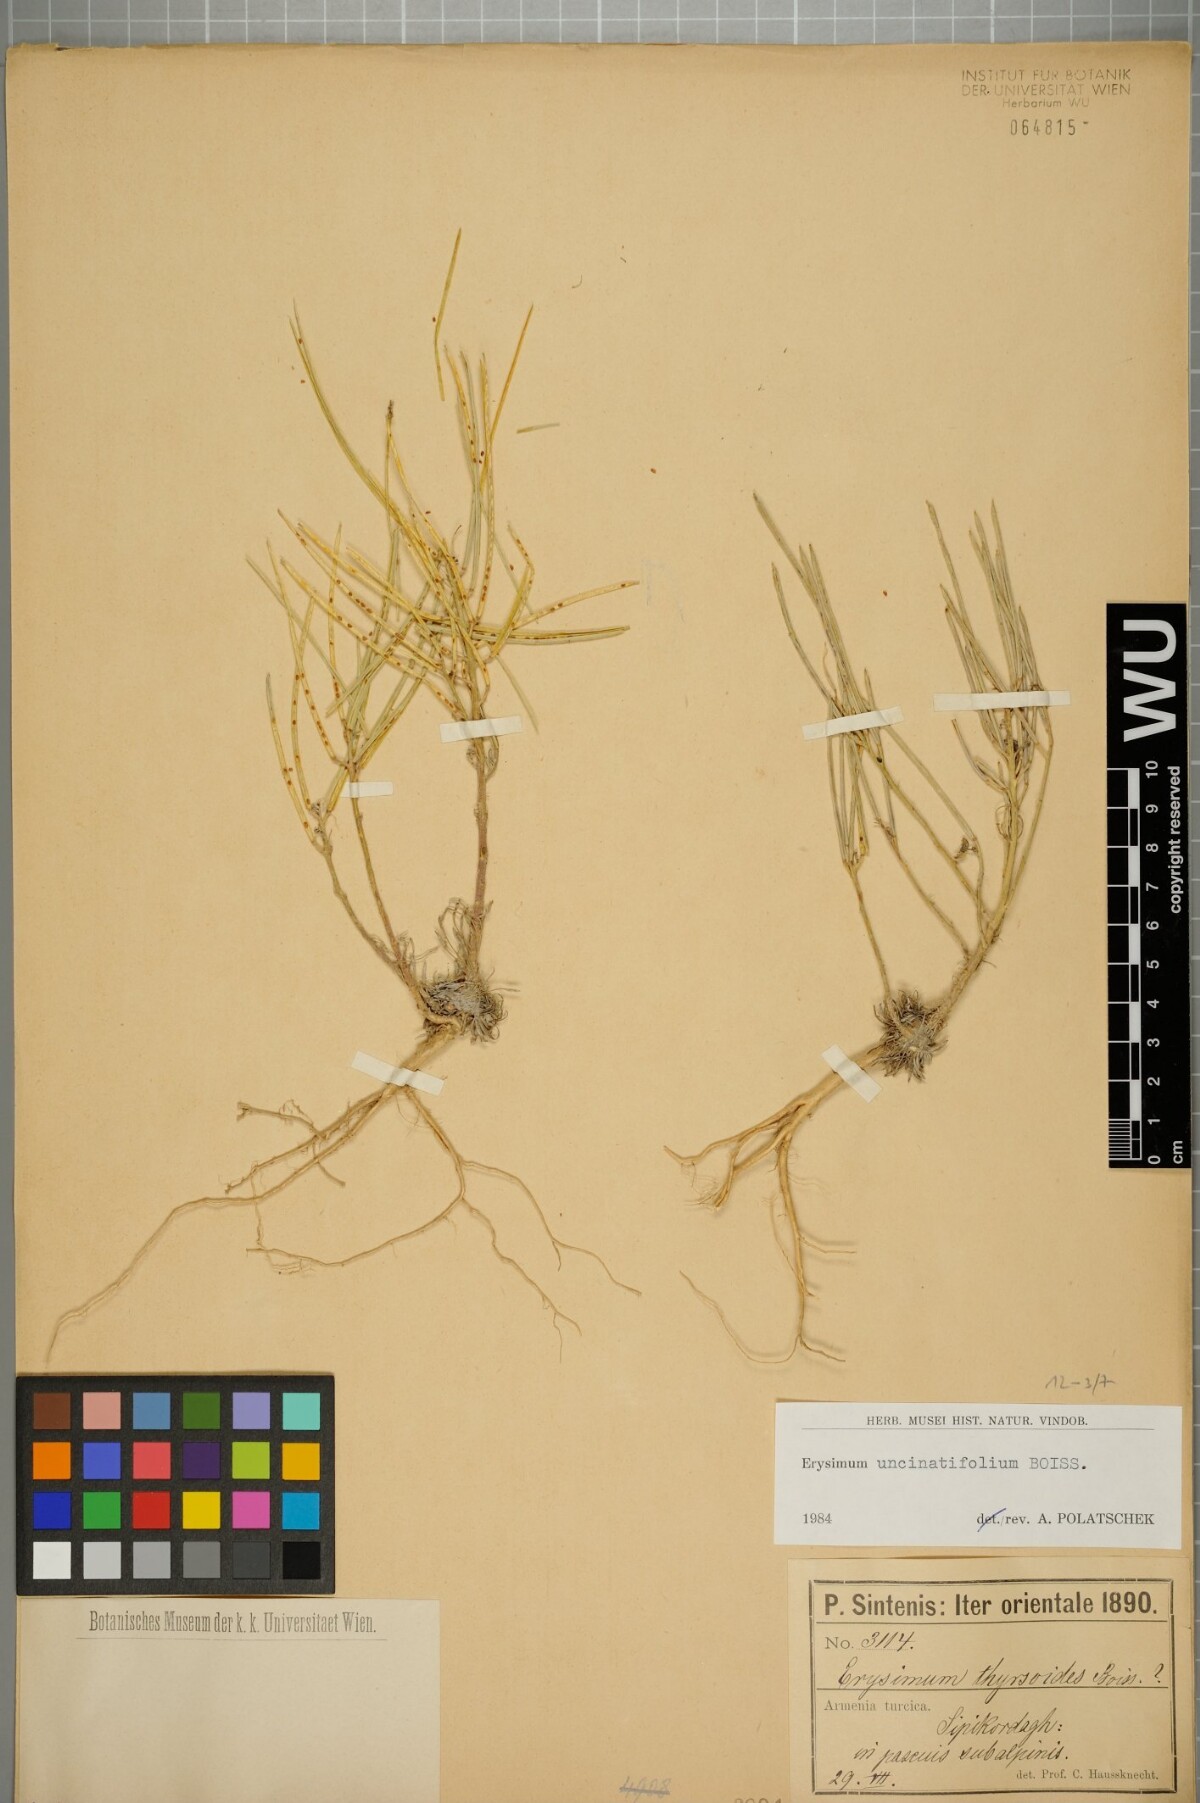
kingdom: Plantae
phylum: Tracheophyta
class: Magnoliopsida
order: Brassicales
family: Brassicaceae
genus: Erysimum
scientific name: Erysimum uncinatifolium
